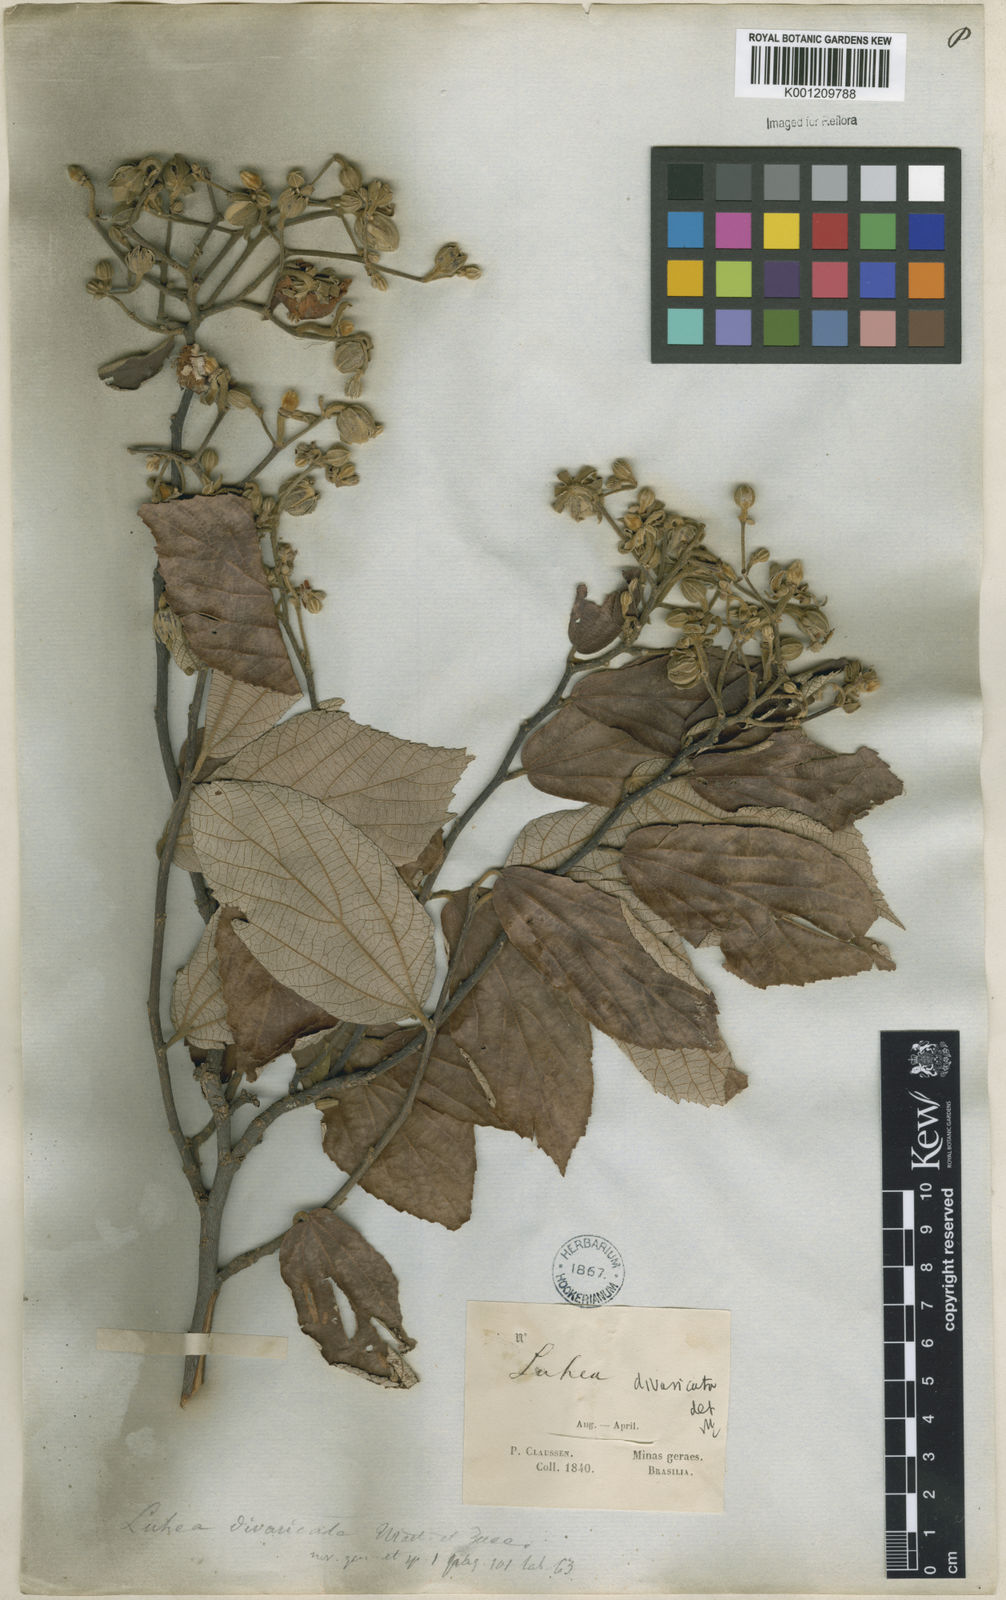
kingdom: Plantae
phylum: Tracheophyta
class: Magnoliopsida
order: Malvales
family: Malvaceae
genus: Luehea
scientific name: Luehea divaricata
